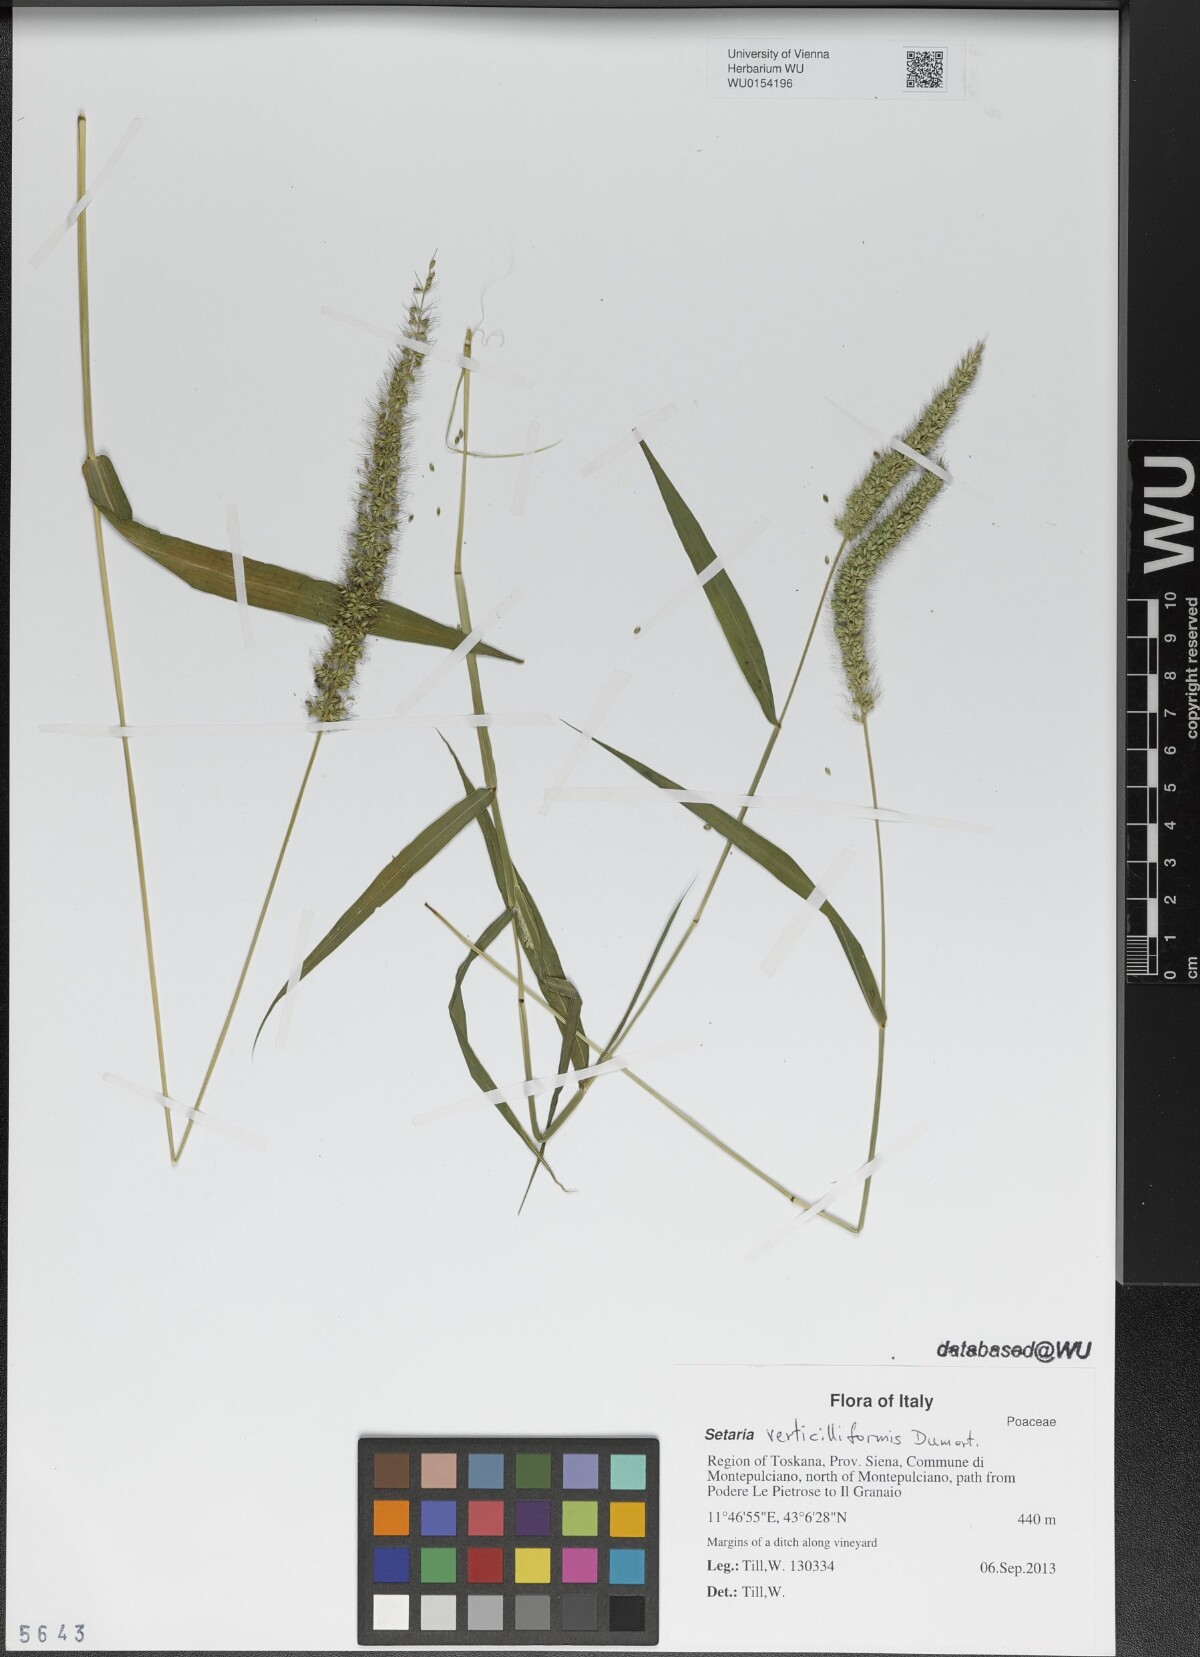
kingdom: Plantae
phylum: Tracheophyta
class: Liliopsida
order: Poales
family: Poaceae
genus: Setaria
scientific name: Setaria verticillata
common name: Hooked bristlegrass
